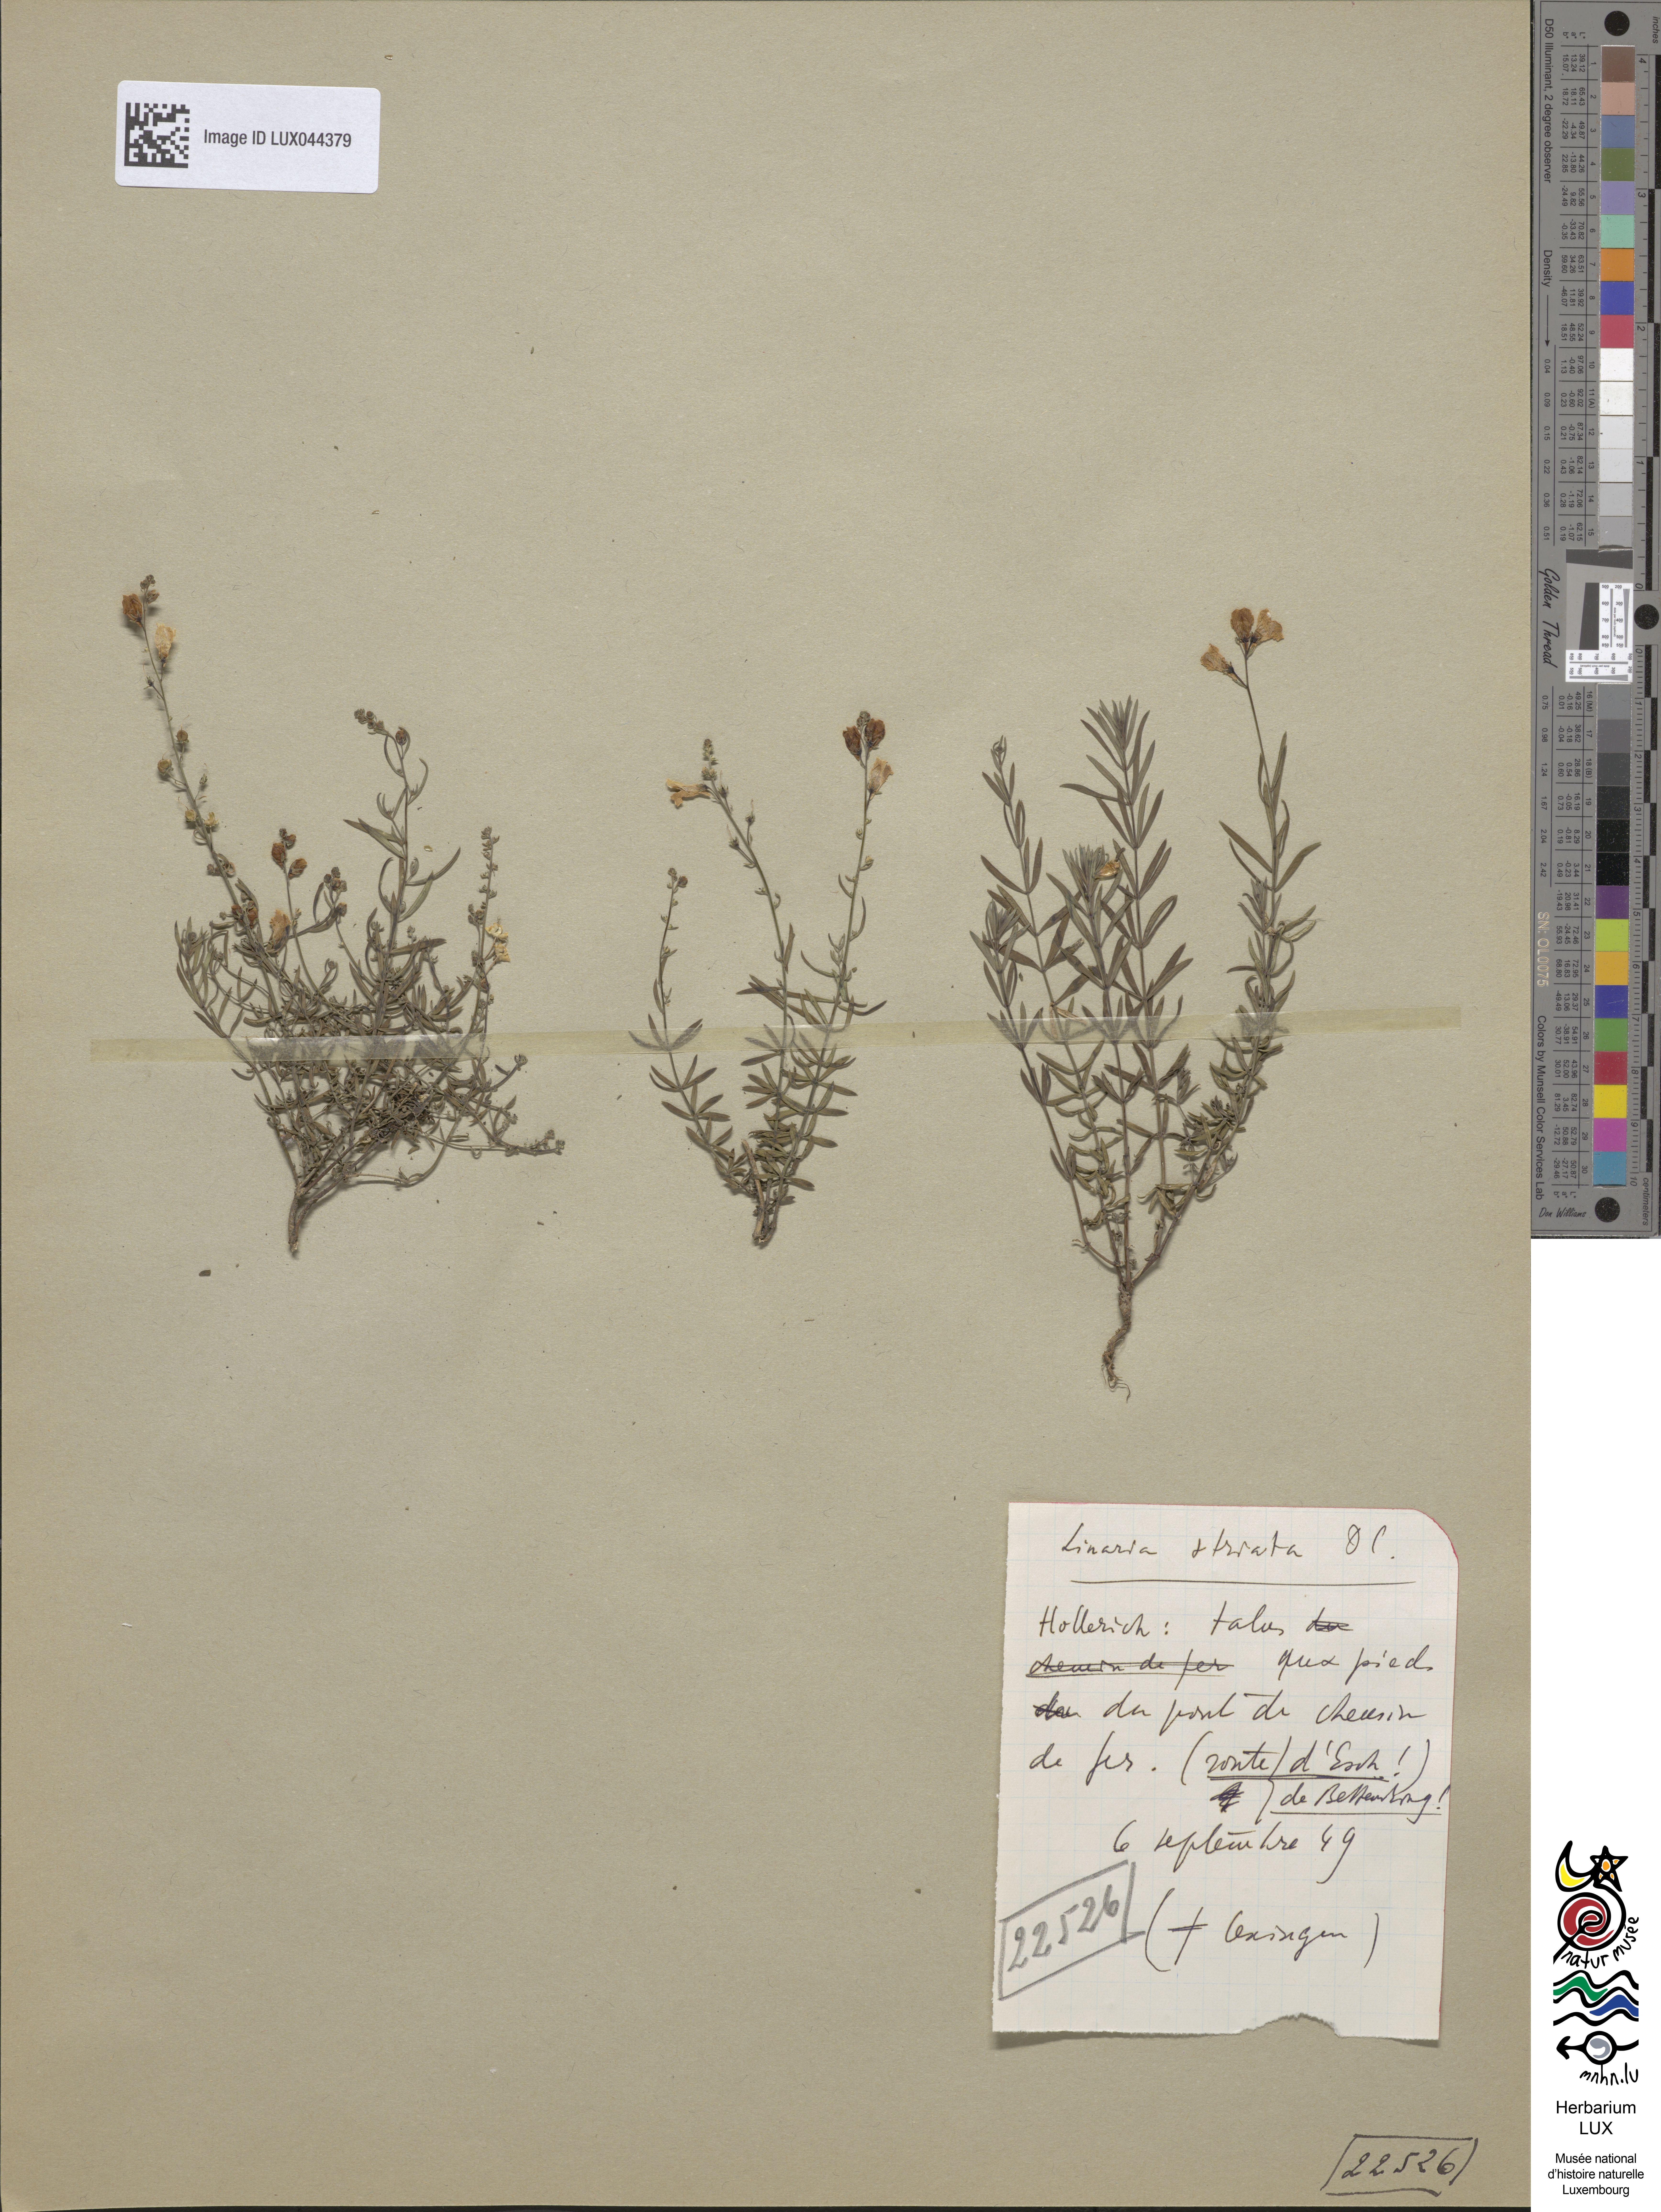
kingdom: Plantae
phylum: Tracheophyta
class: Magnoliopsida
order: Lamiales
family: Plantaginaceae
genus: Linaria
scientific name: Linaria repens
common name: Pale toadflax
